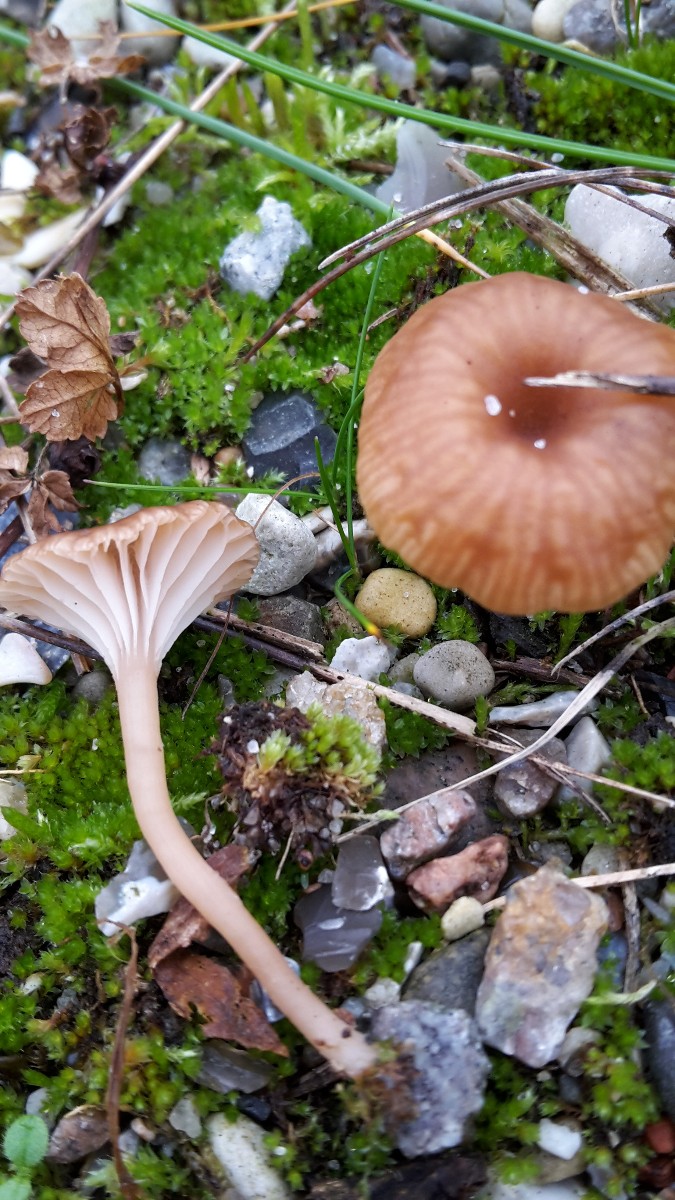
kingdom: Fungi
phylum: Basidiomycota
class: Agaricomycetes
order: Agaricales
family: Tricholomataceae
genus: Omphalina
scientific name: Omphalina pyxidata
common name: rødbrun navlehat
